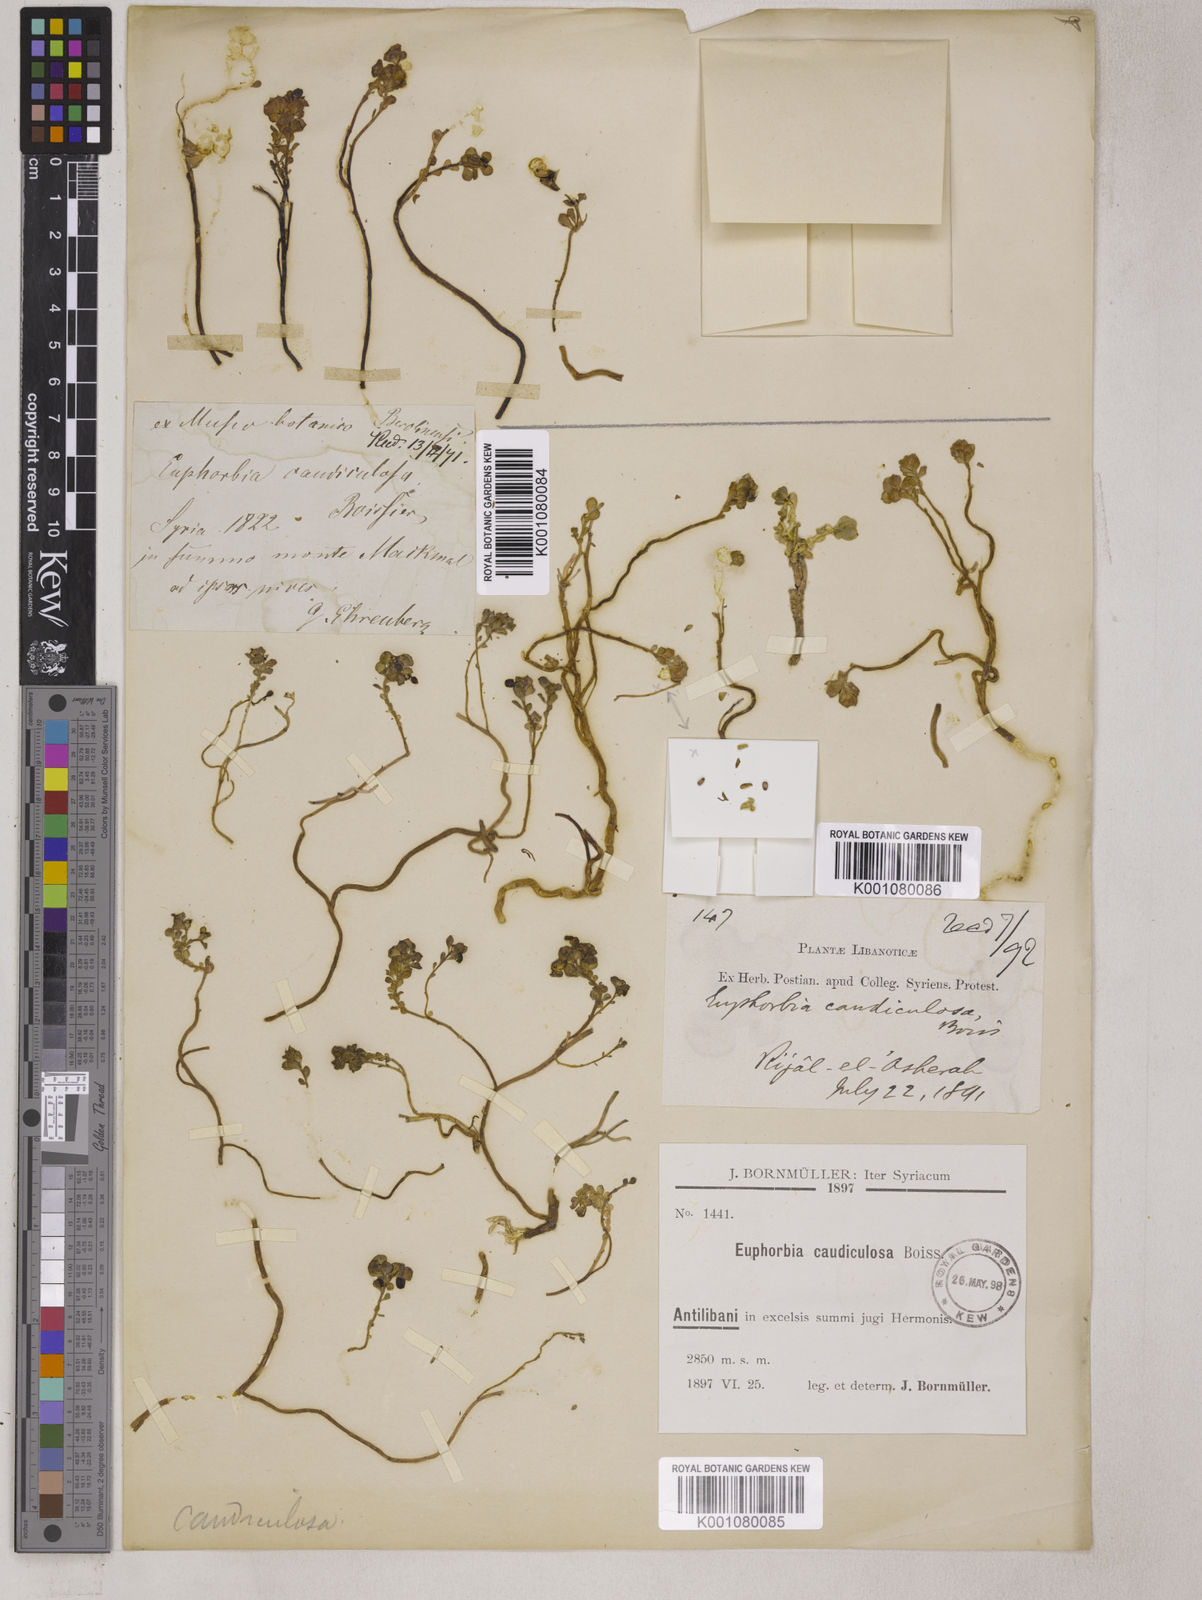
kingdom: Plantae
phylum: Tracheophyta
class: Magnoliopsida
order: Malpighiales
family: Euphorbiaceae
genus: Euphorbia
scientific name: Euphorbia caudiculosa
